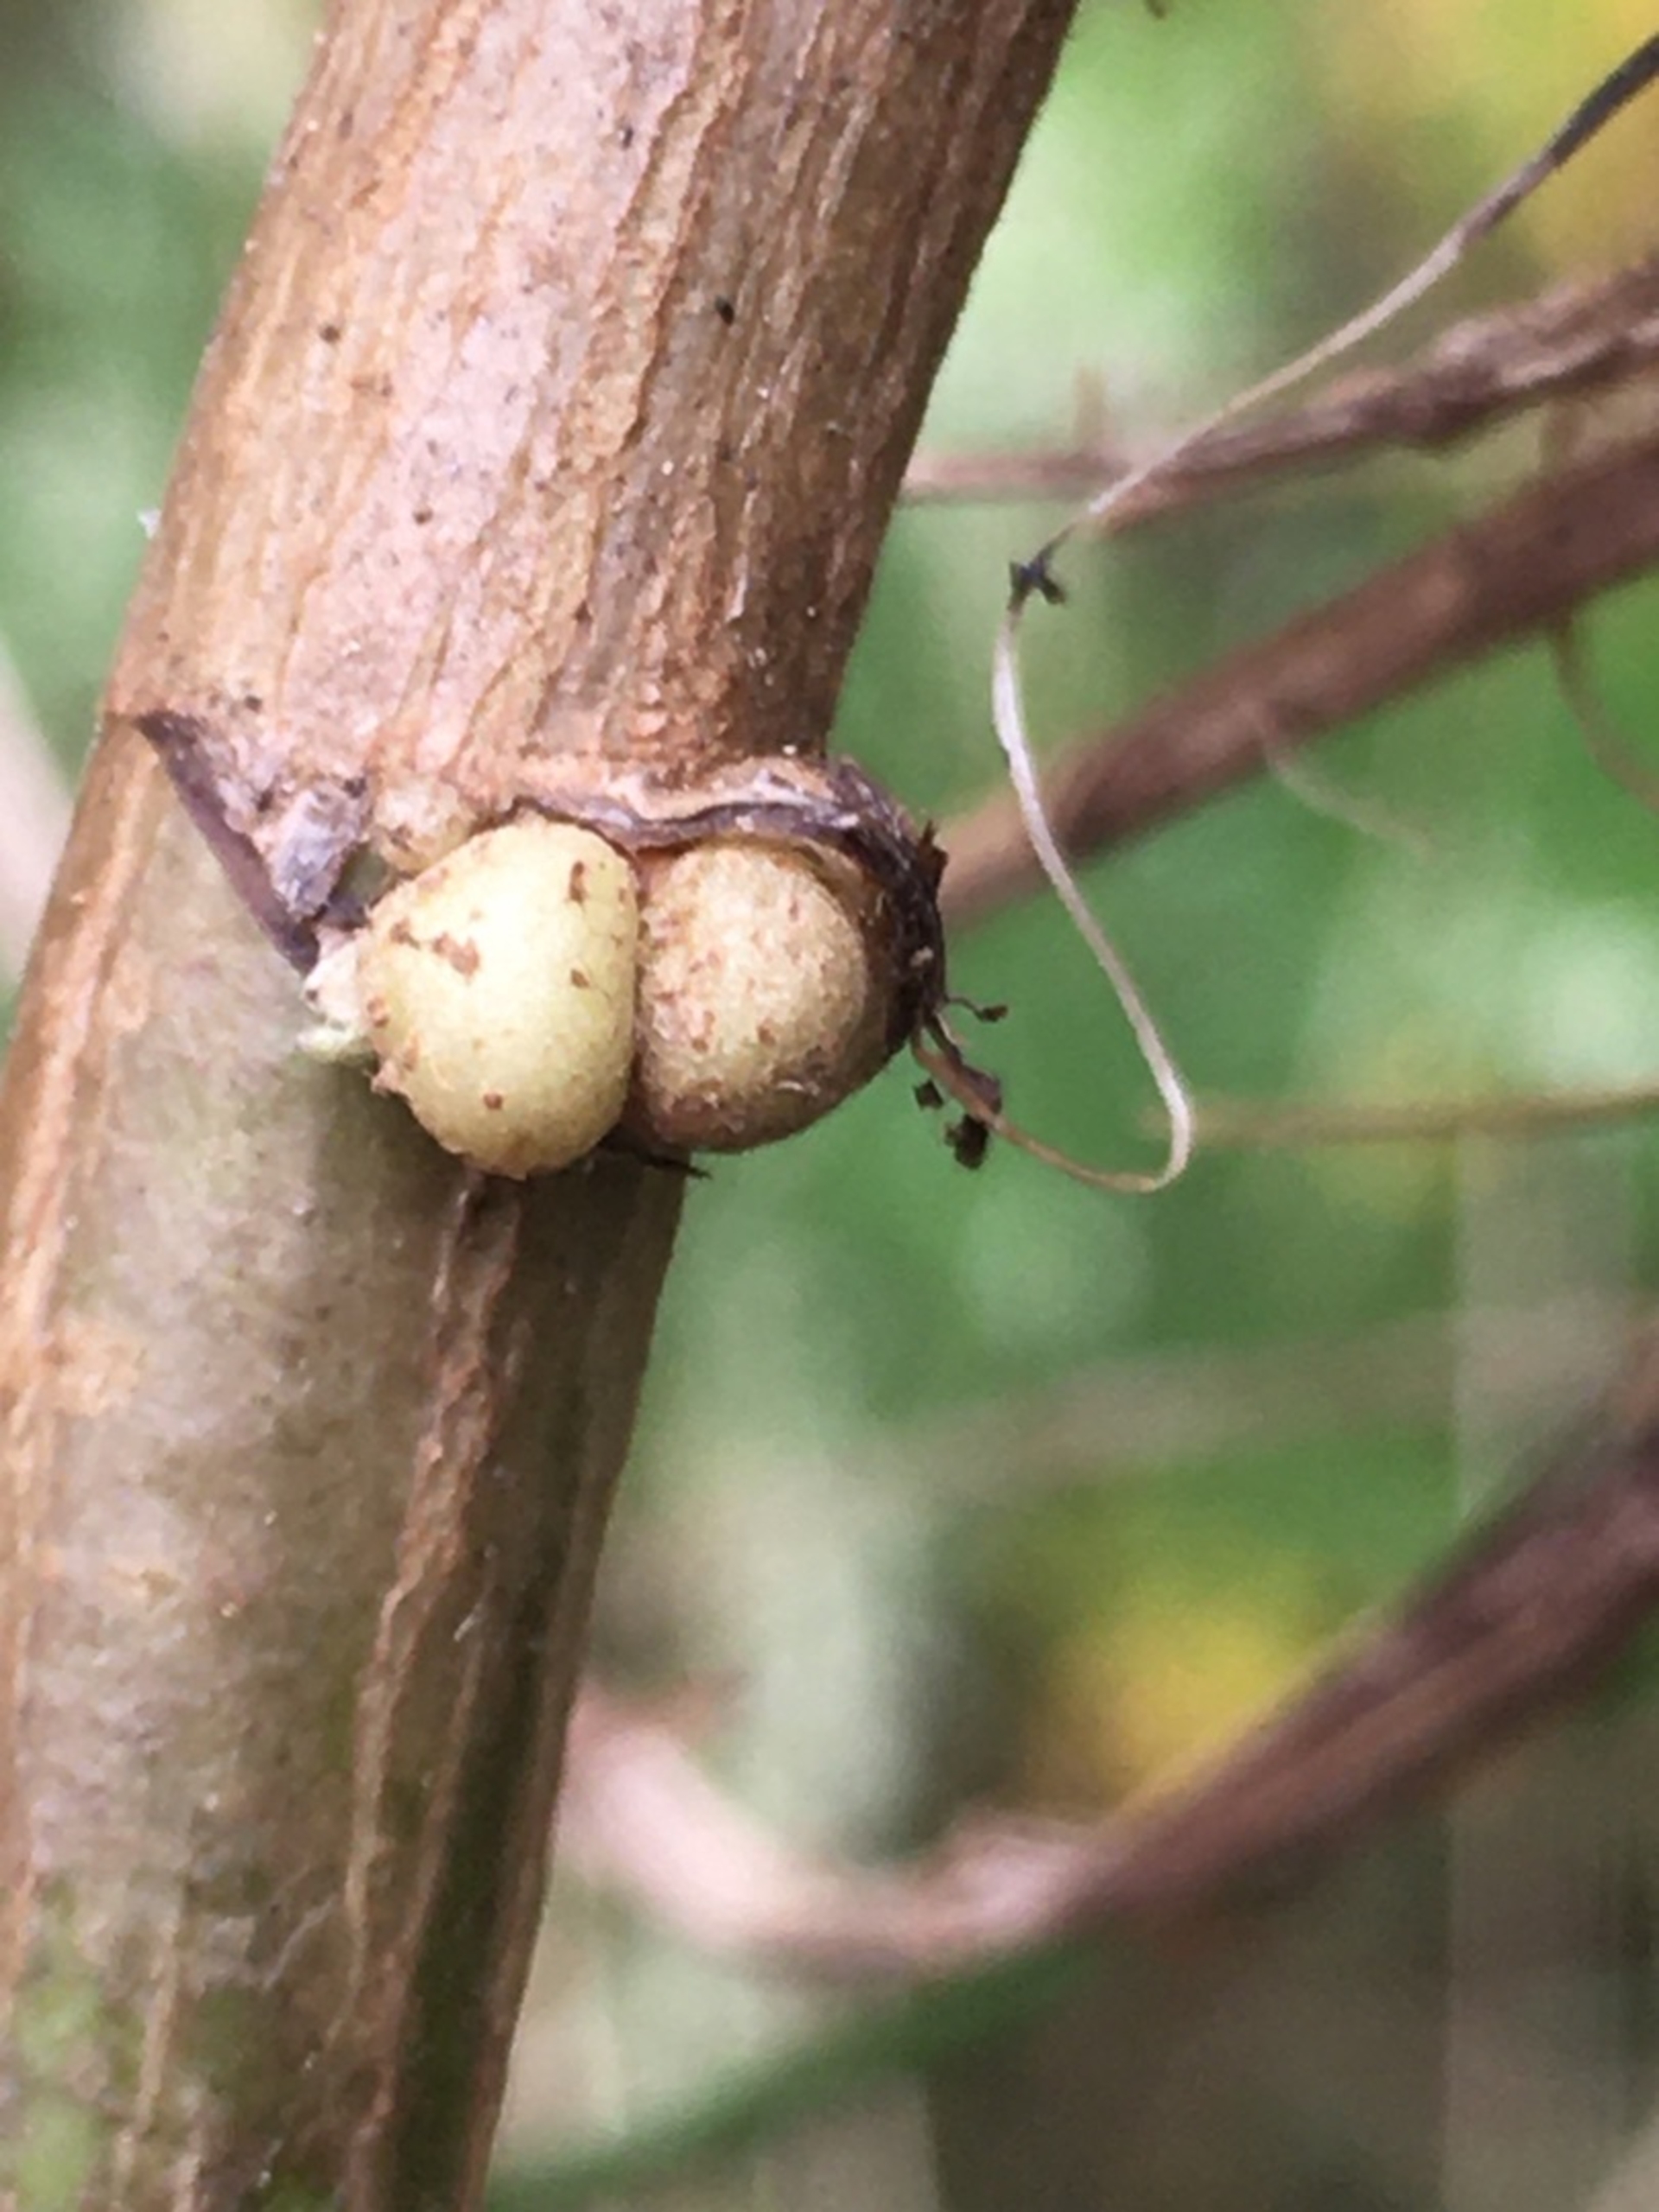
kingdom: Animalia
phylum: Arthropoda
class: Insecta
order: Diptera
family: Cecidomyiidae
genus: Rhopalomyia
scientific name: Rhopalomyia baccarum
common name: Bynkerodhalsgalmyg
